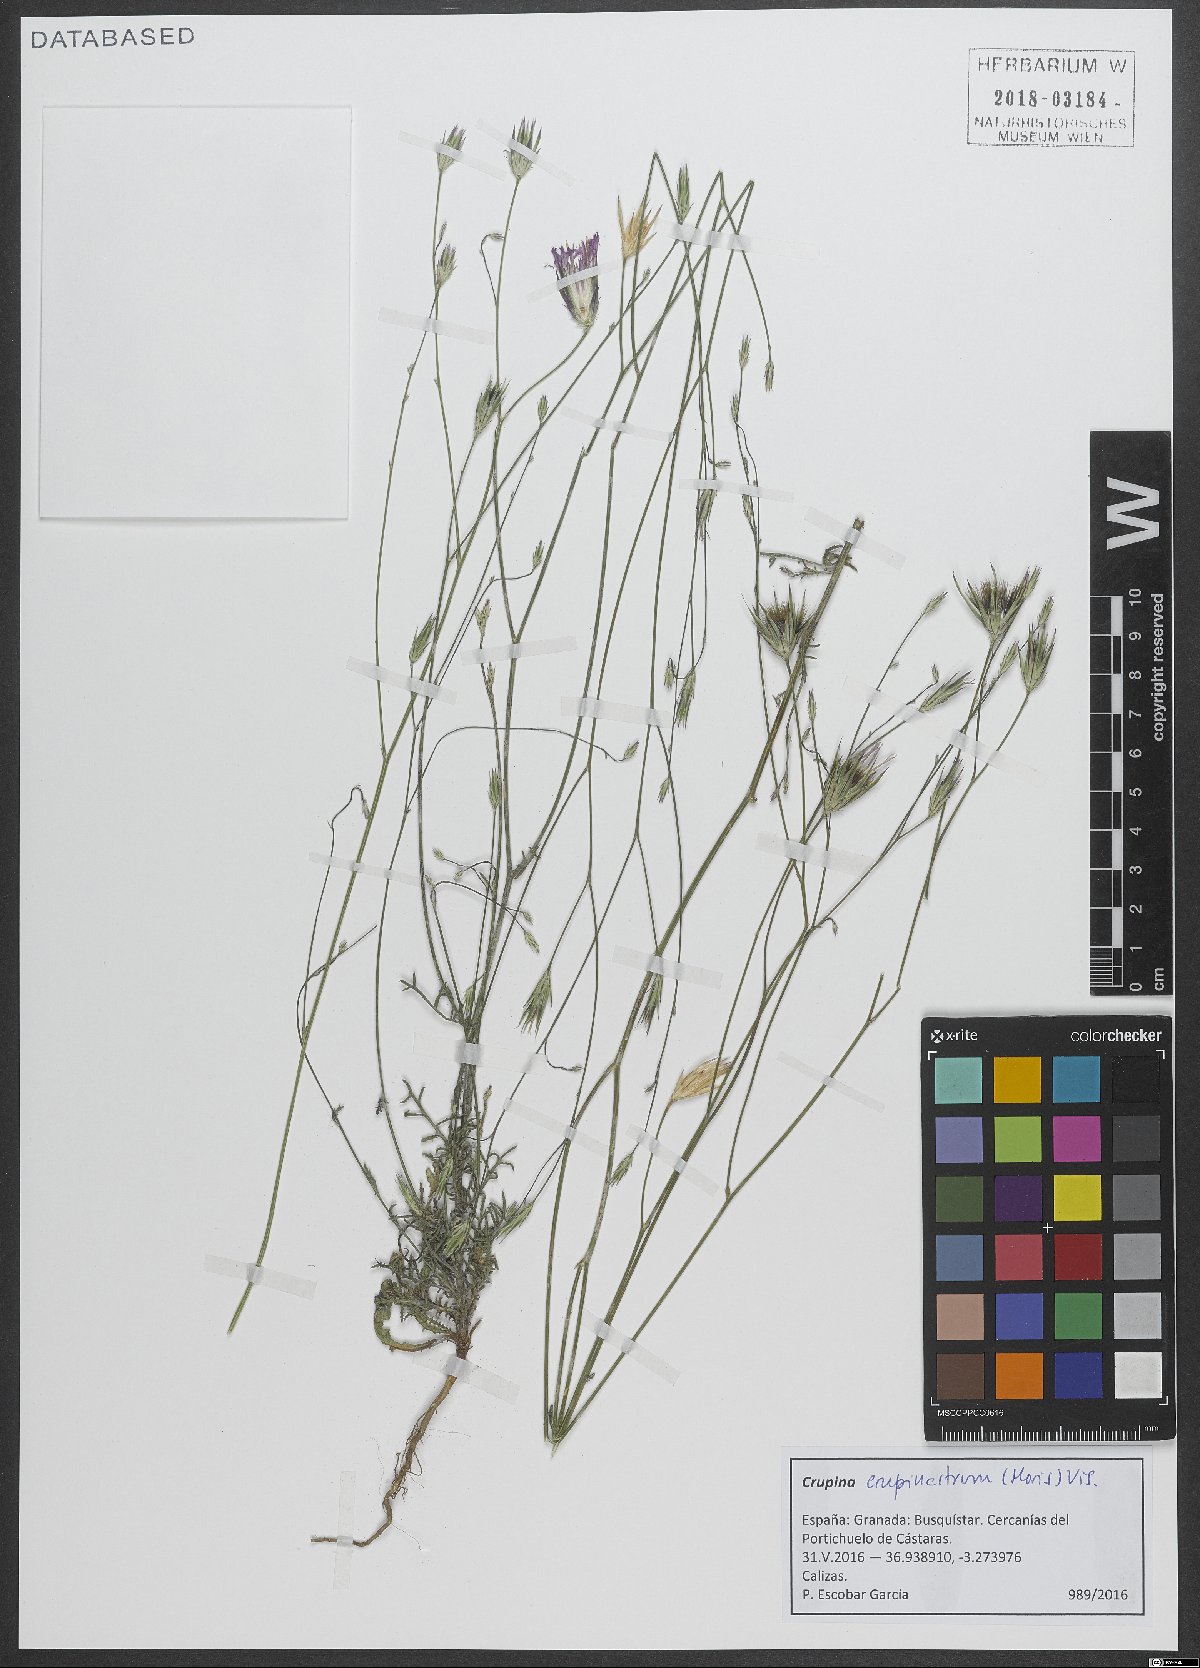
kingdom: Plantae
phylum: Tracheophyta
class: Magnoliopsida
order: Asterales
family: Asteraceae
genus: Crupina
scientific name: Crupina crupinastrum
